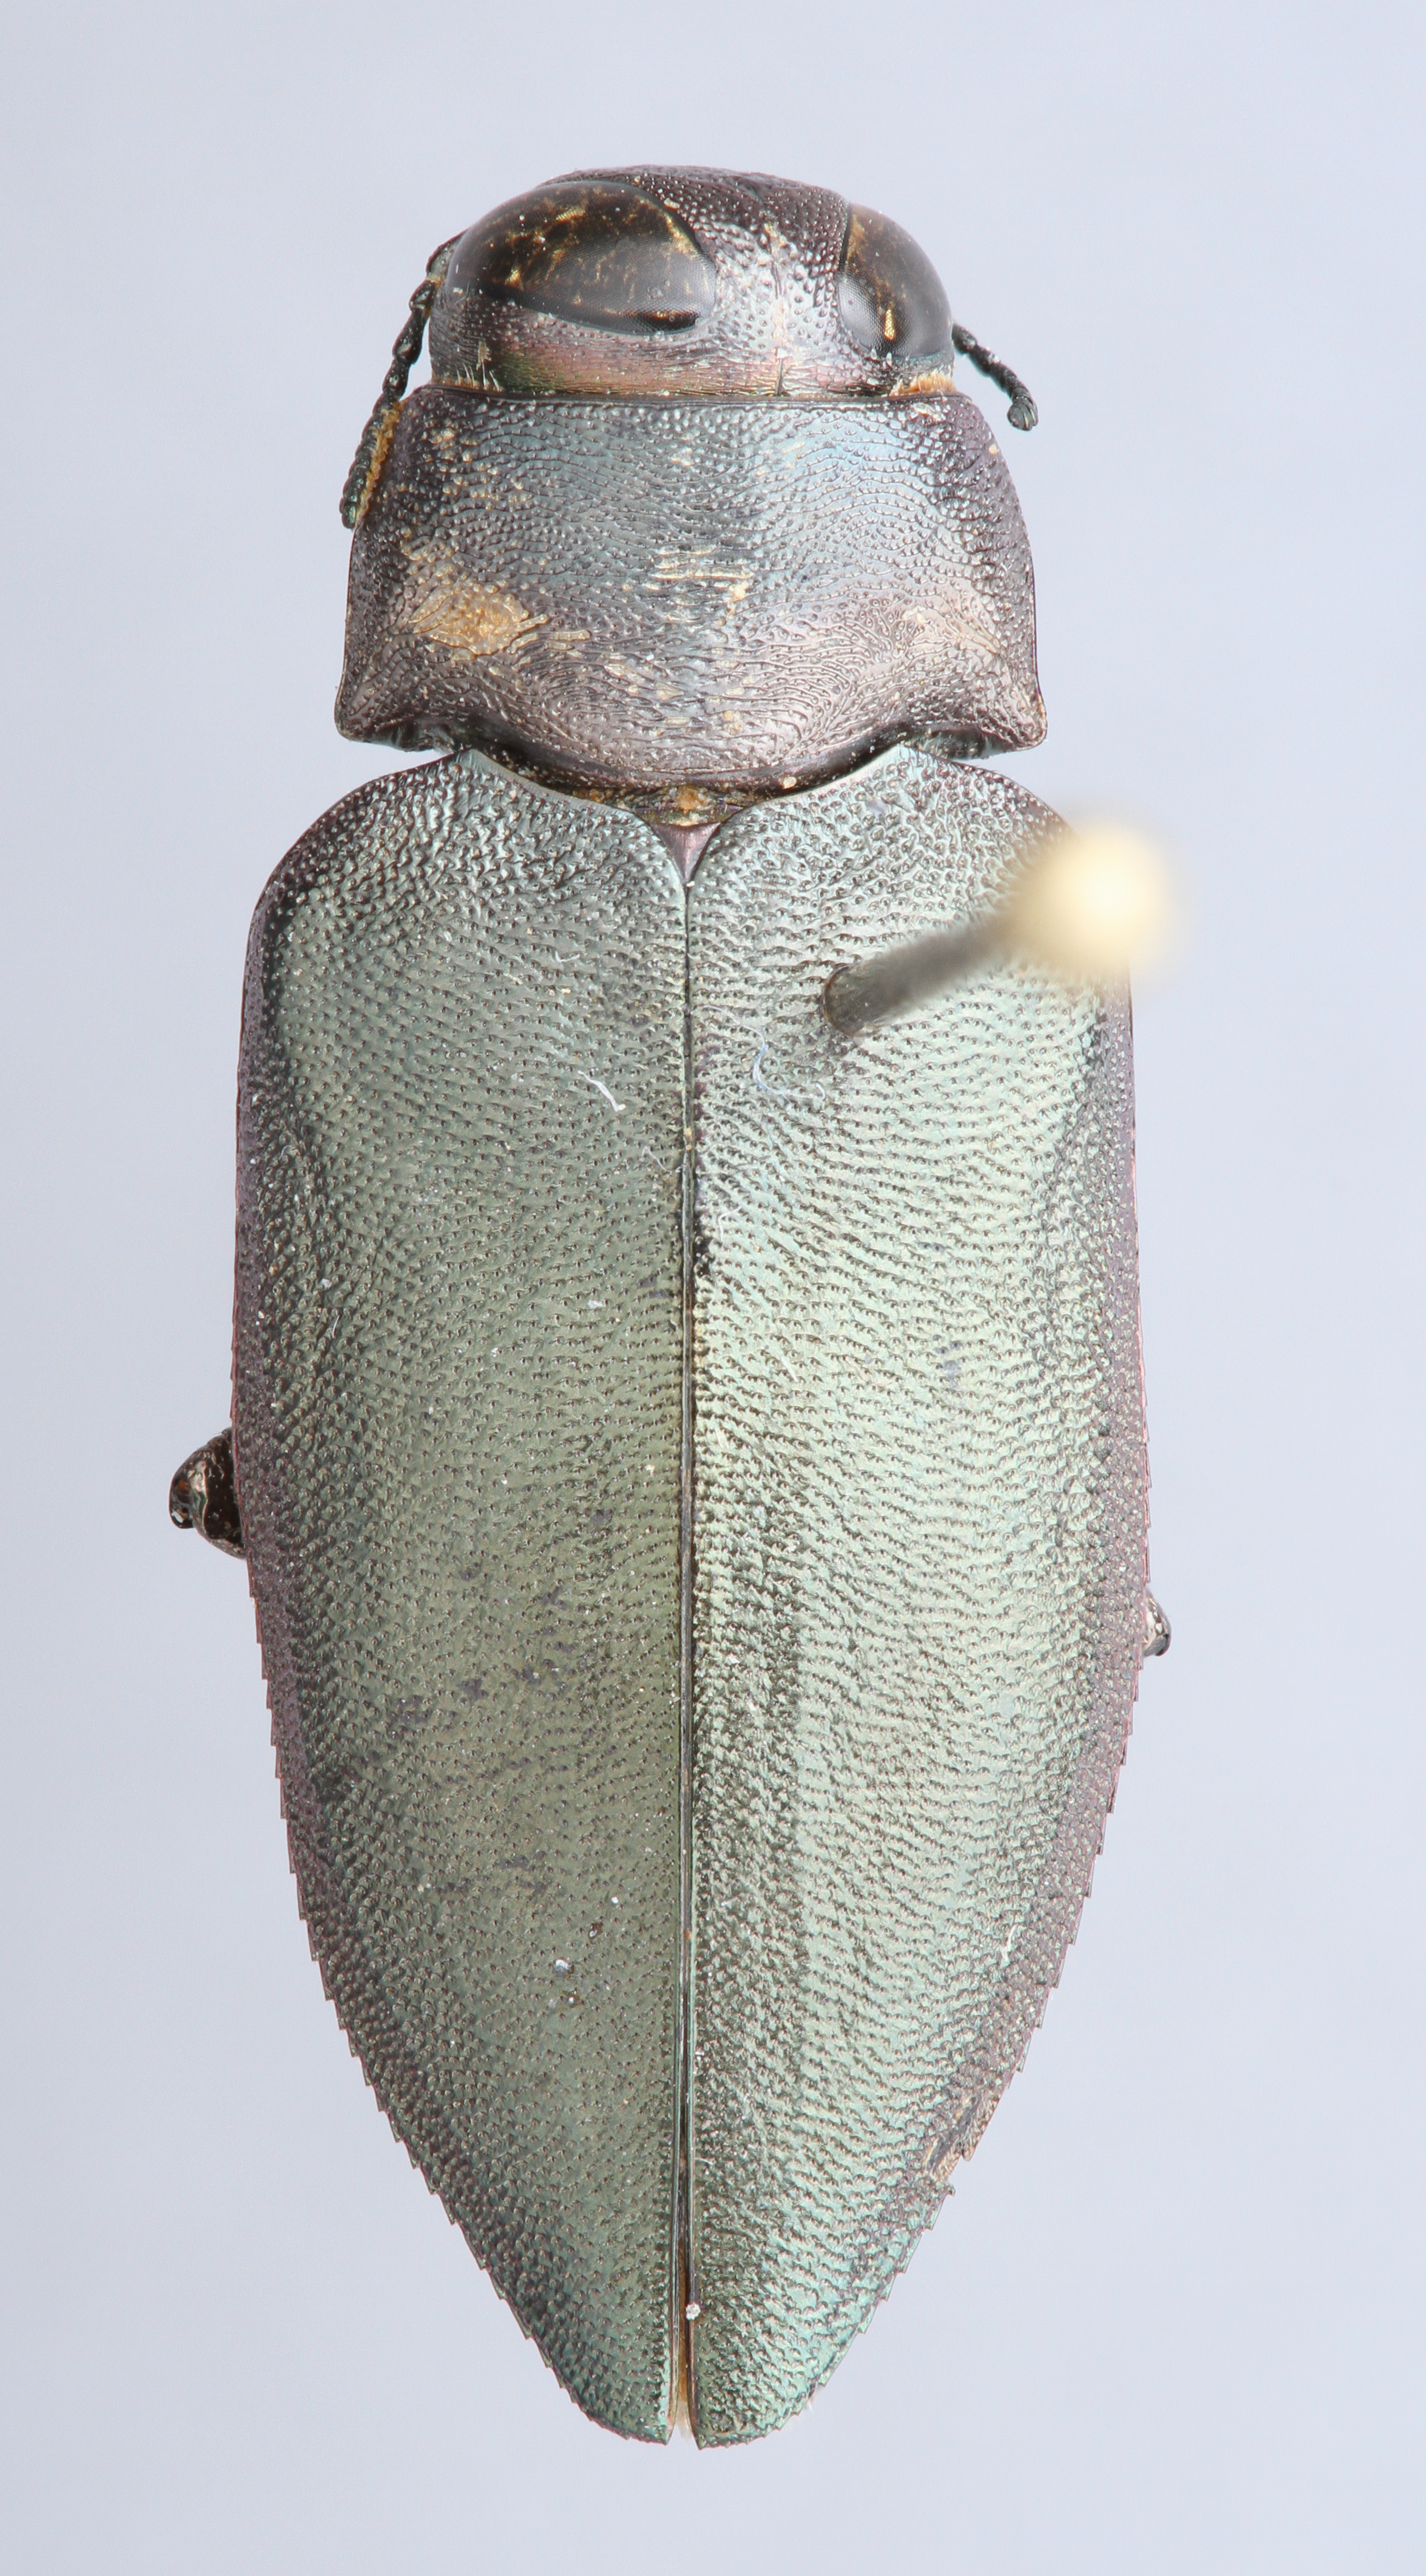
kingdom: Animalia
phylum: Arthropoda
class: Insecta
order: Coleoptera
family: Buprestidae
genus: Actenodes
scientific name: Actenodes mendax
